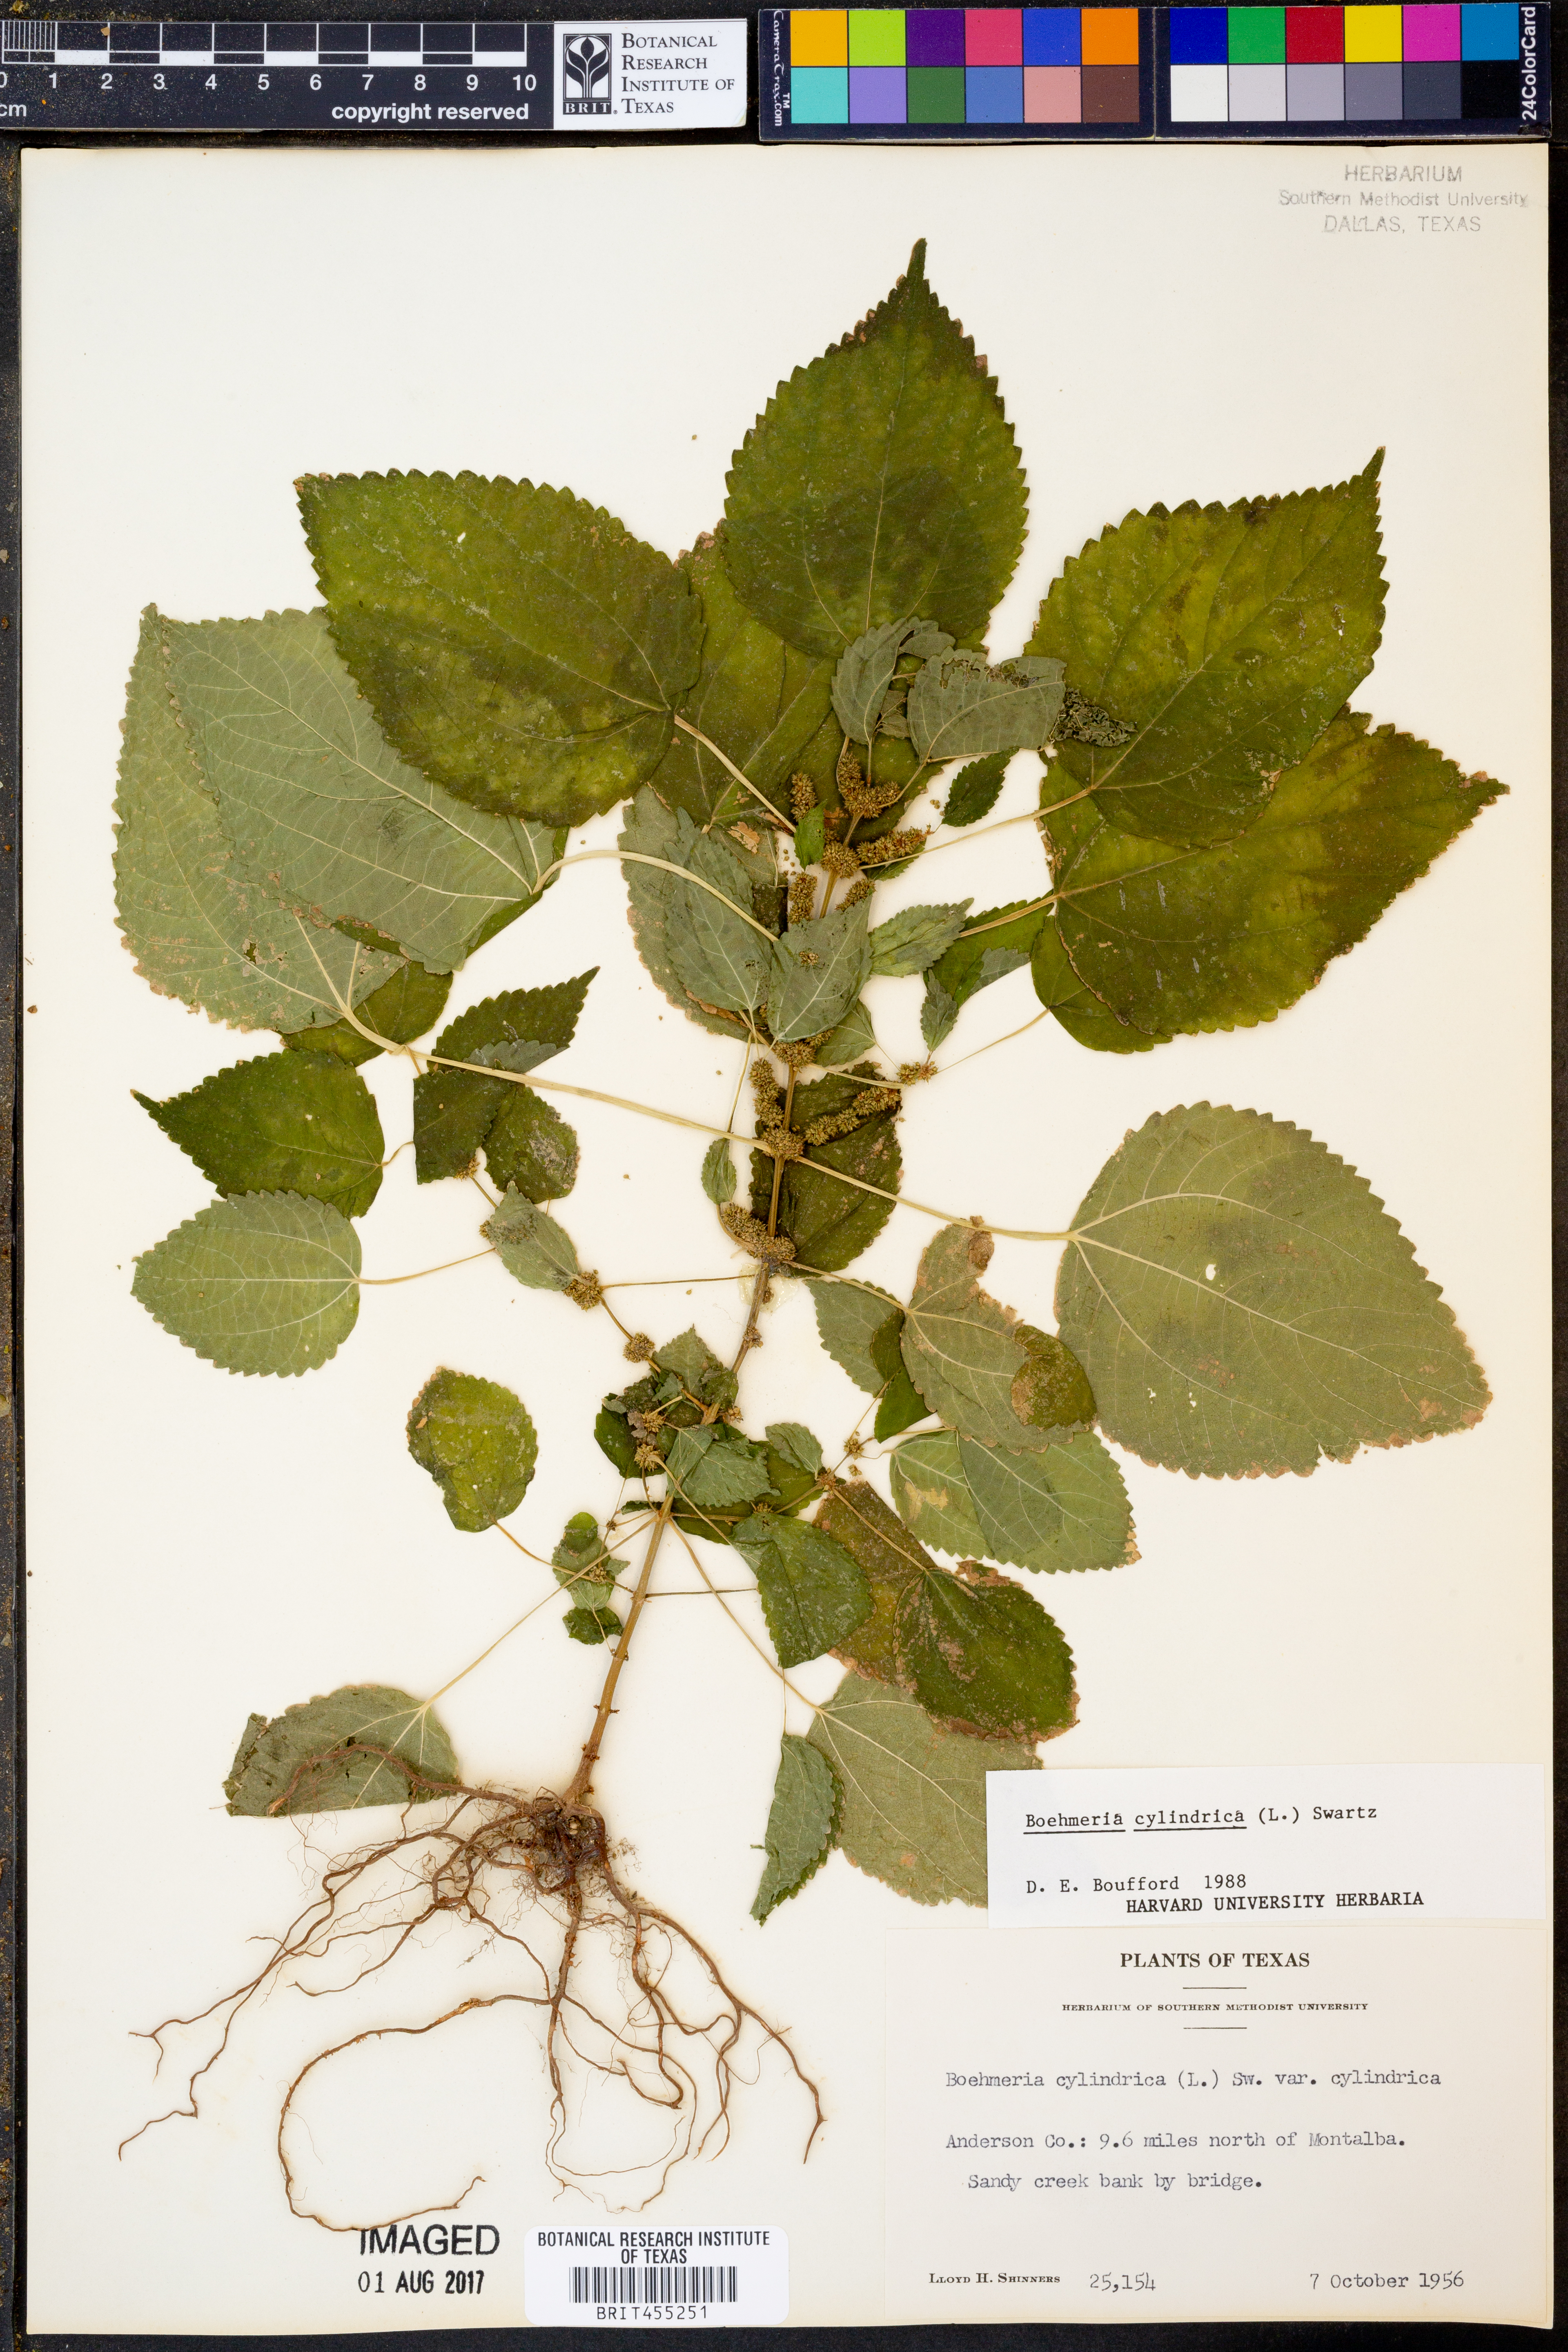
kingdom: Plantae
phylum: Tracheophyta
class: Magnoliopsida
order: Rosales
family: Urticaceae
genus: Boehmeria
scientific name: Boehmeria cylindrica
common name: Bog-hemp
